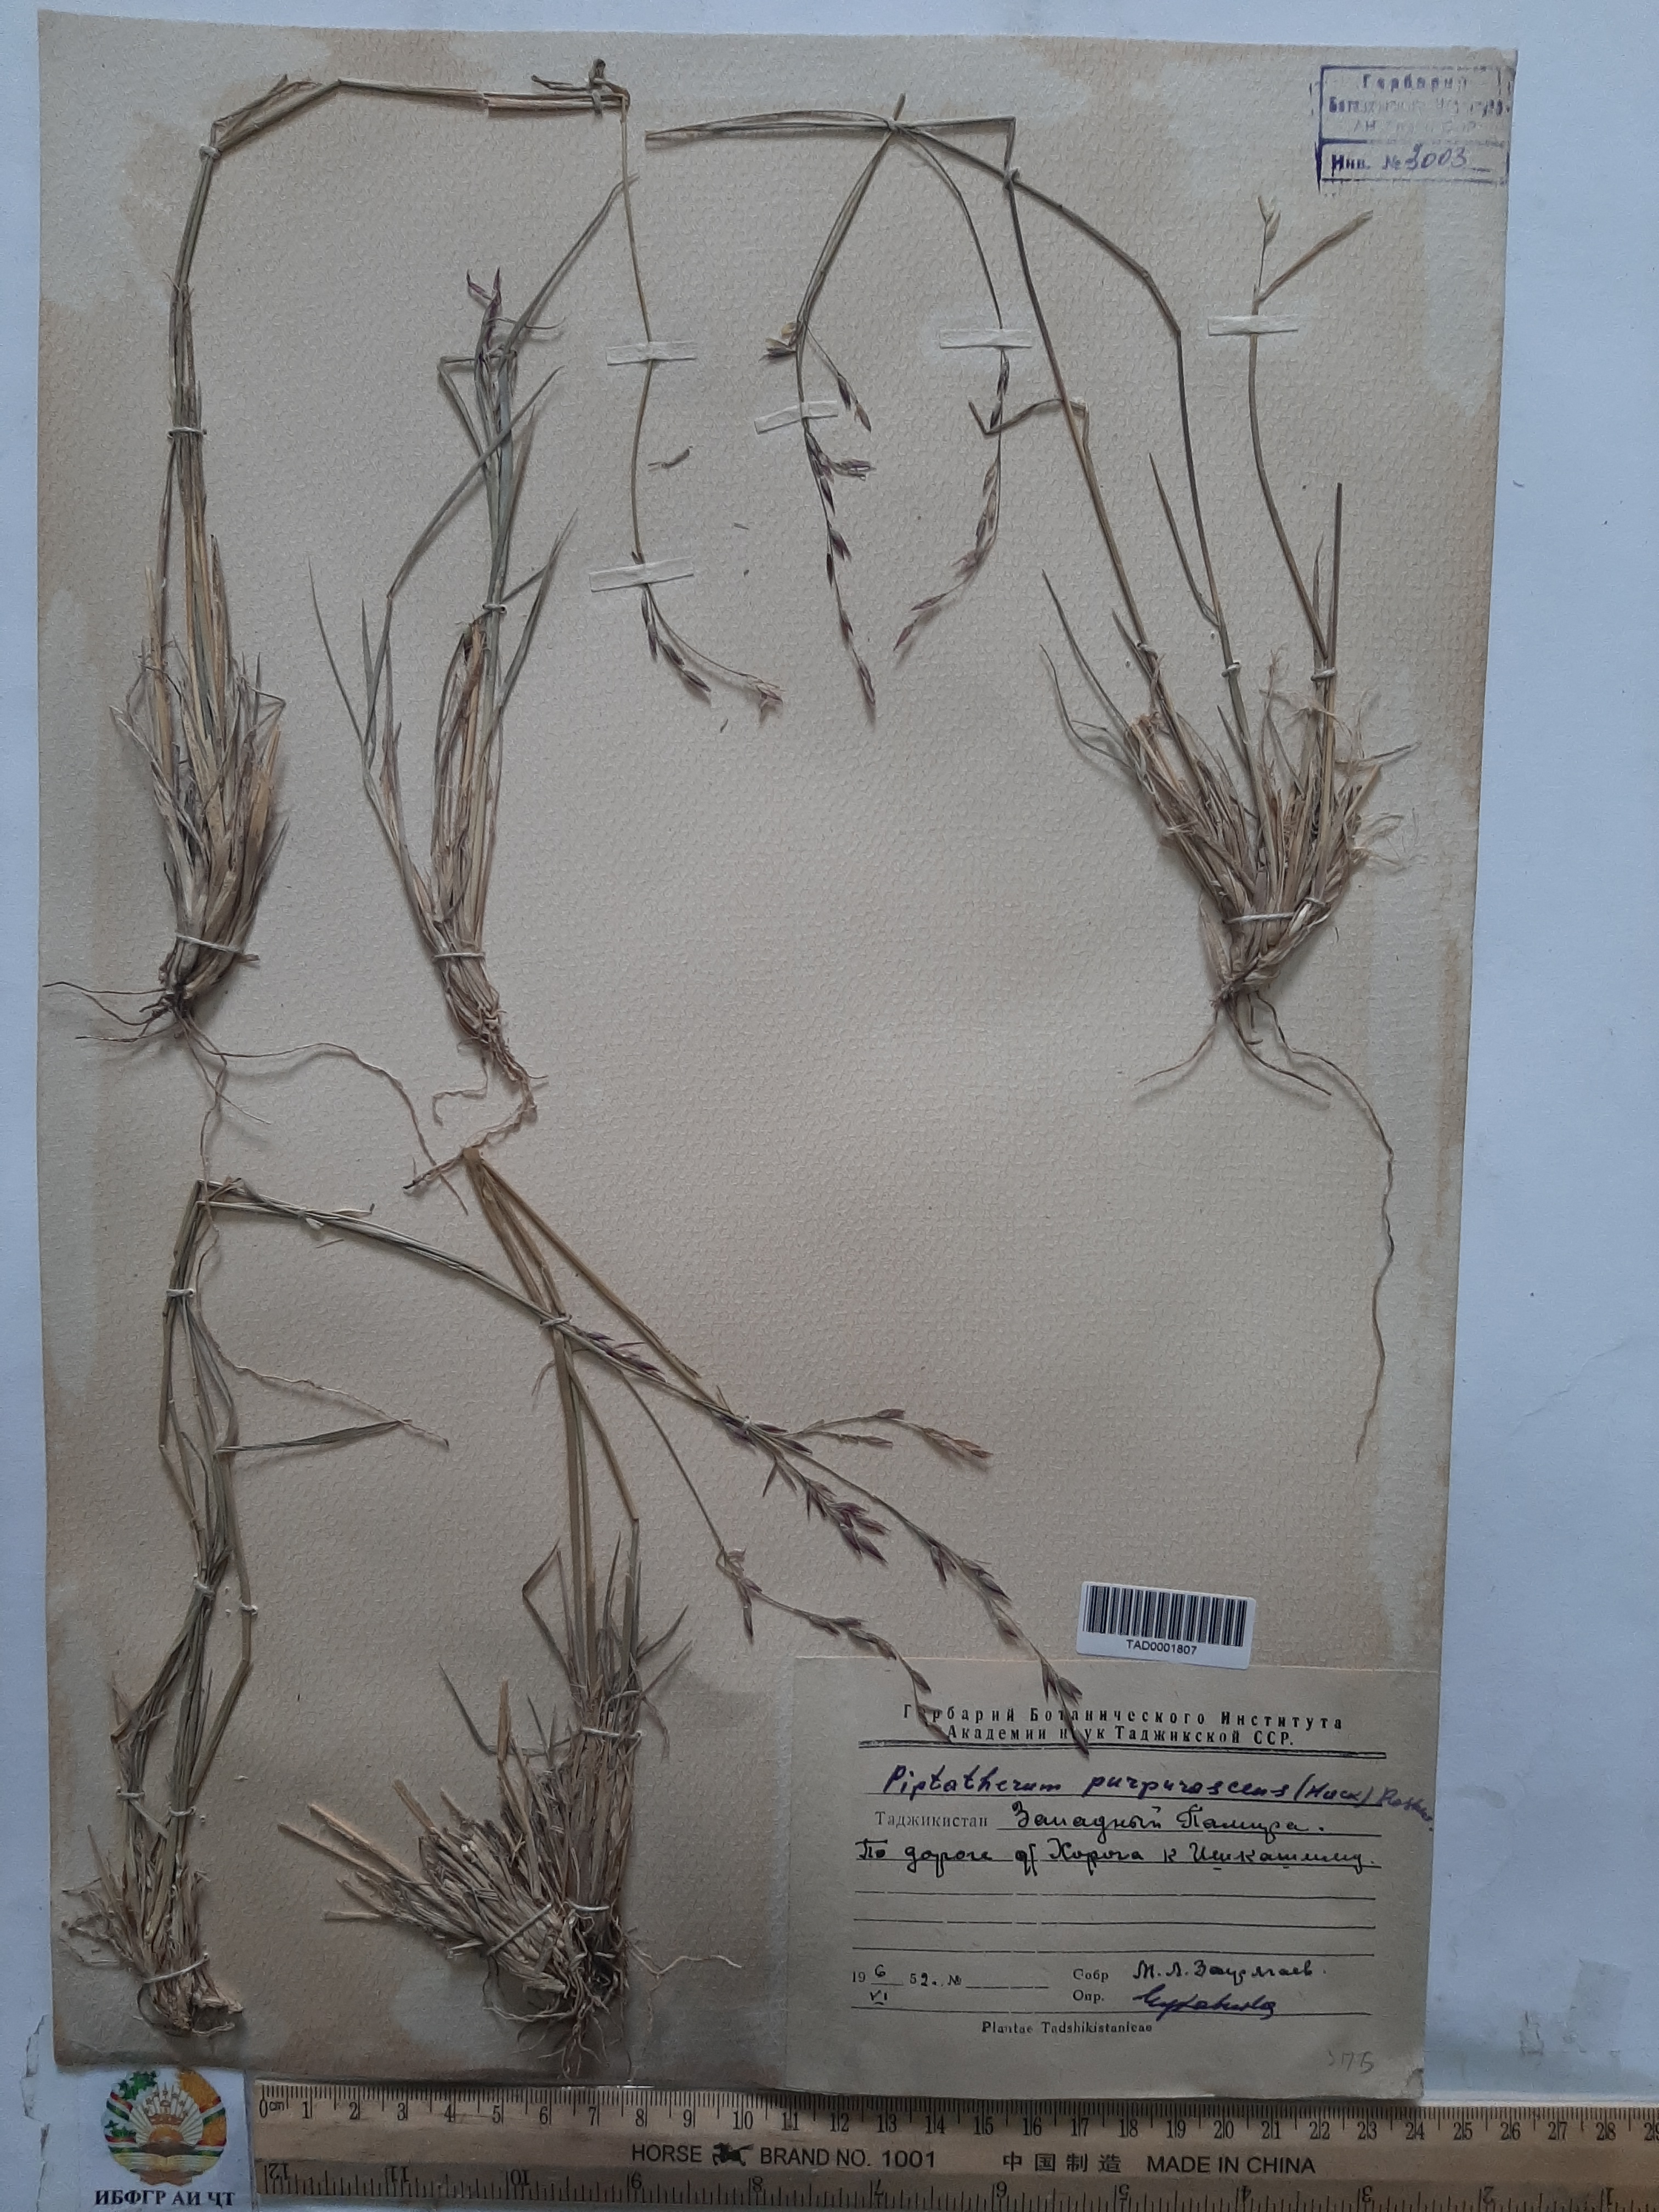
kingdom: Plantae
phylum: Tracheophyta
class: Liliopsida
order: Poales
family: Poaceae
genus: Piptatherum
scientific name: Piptatherum purpurascens
